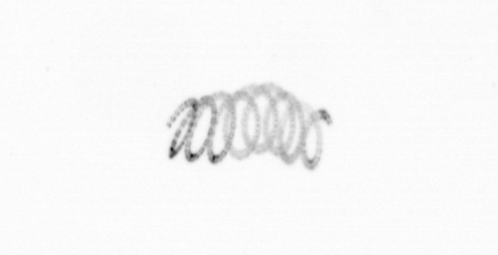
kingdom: Chromista
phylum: Ochrophyta
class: Bacillariophyceae
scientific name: Bacillariophyceae
